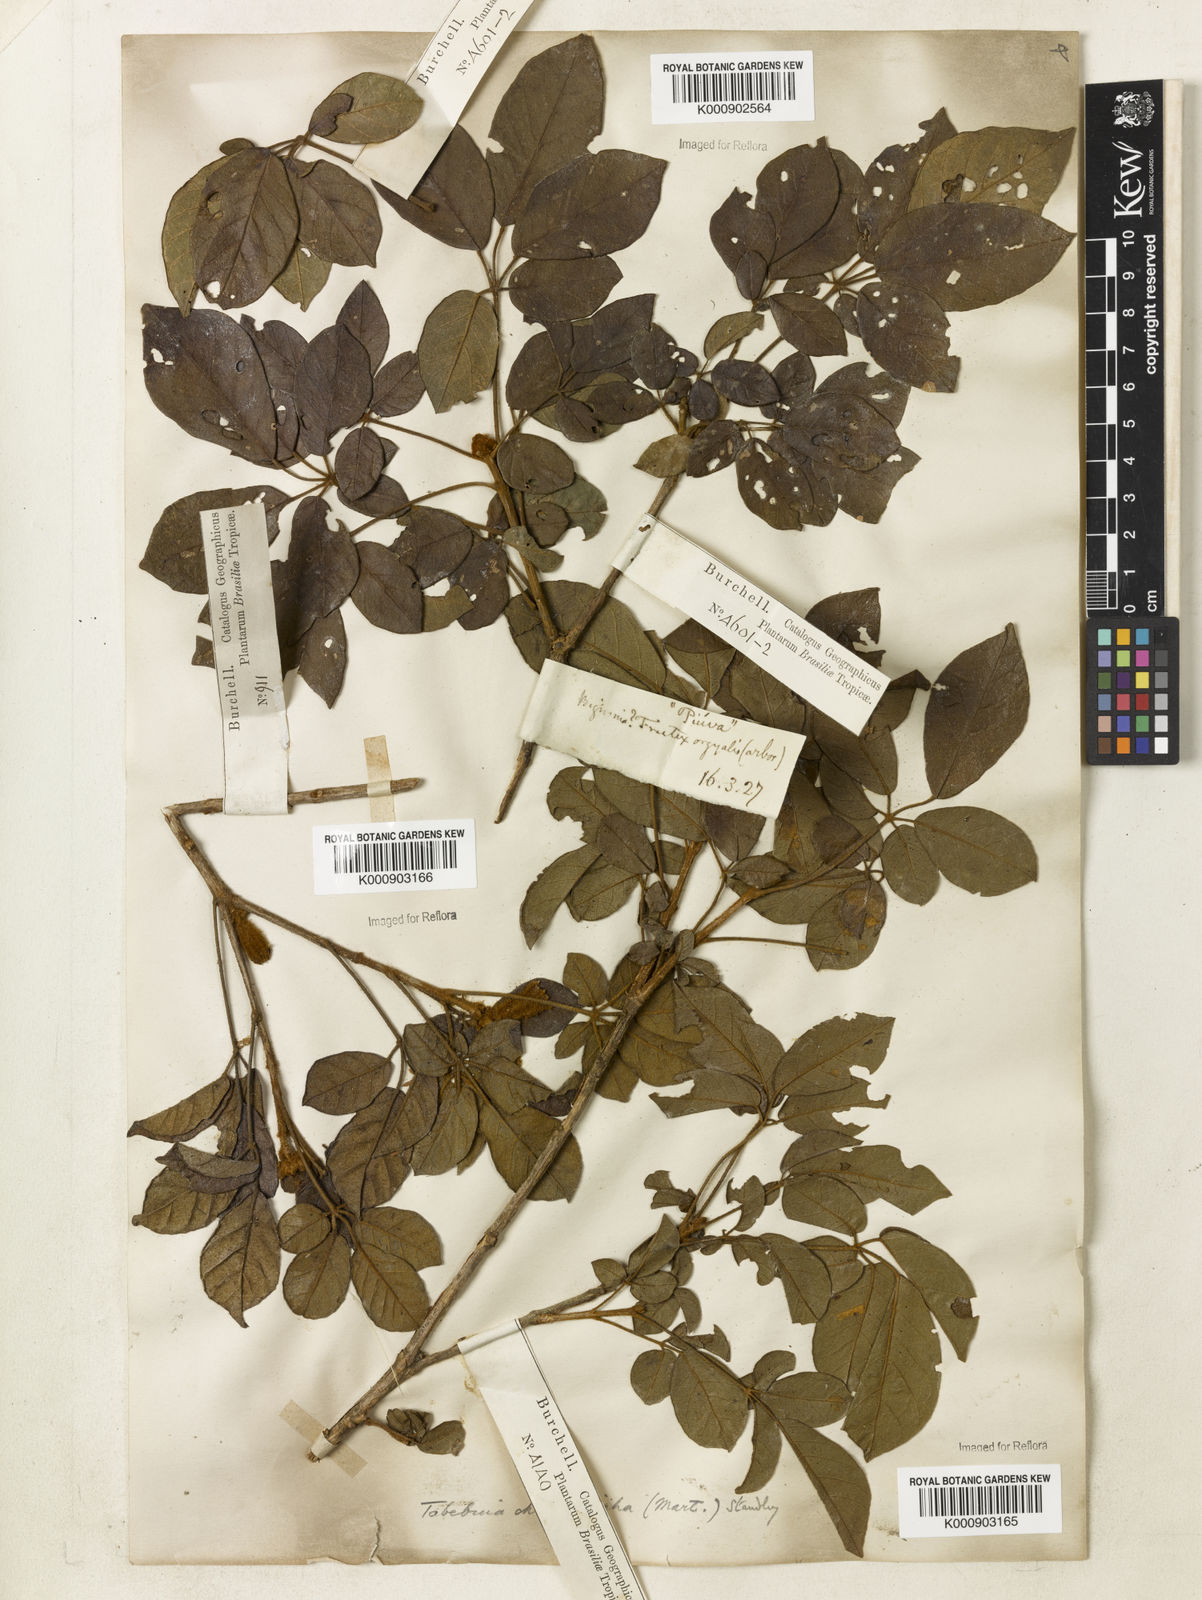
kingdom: Plantae
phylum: Tracheophyta
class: Magnoliopsida
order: Lamiales
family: Bignoniaceae
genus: Handroanthus
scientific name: Handroanthus chrysotrichus
